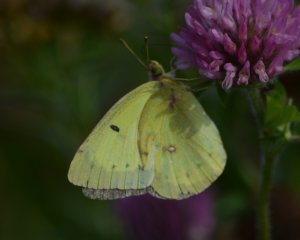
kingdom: Animalia
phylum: Arthropoda
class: Insecta
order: Lepidoptera
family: Pieridae
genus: Colias
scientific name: Colias philodice
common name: Clouded Sulphur
